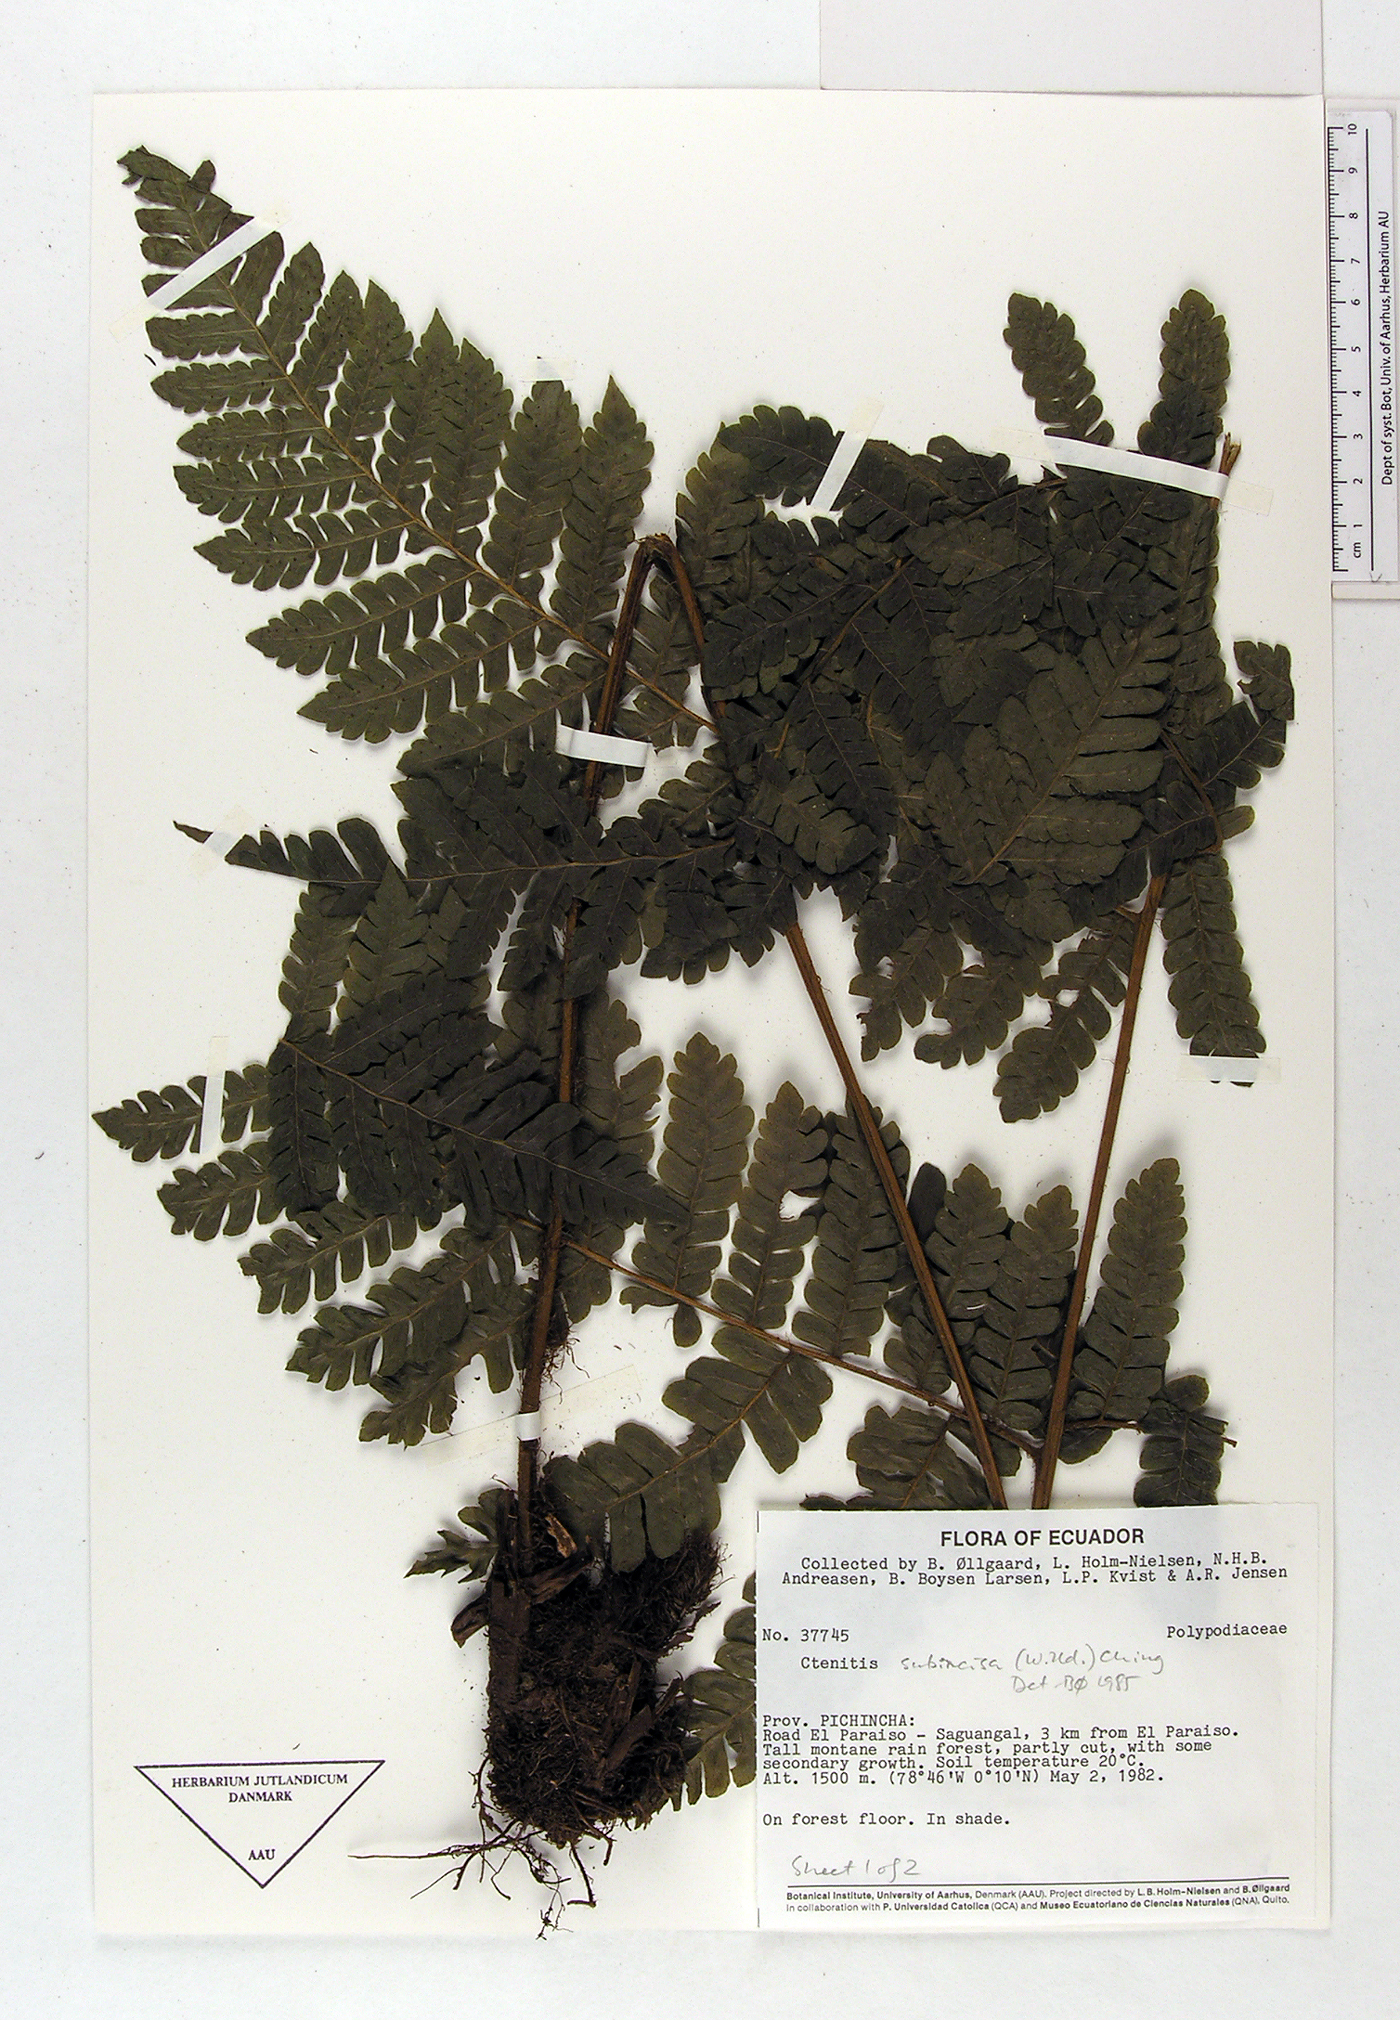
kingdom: Plantae
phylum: Tracheophyta
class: Polypodiopsida
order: Polypodiales
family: Dryopteridaceae
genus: Megalastrum
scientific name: Megalastrum vastum
